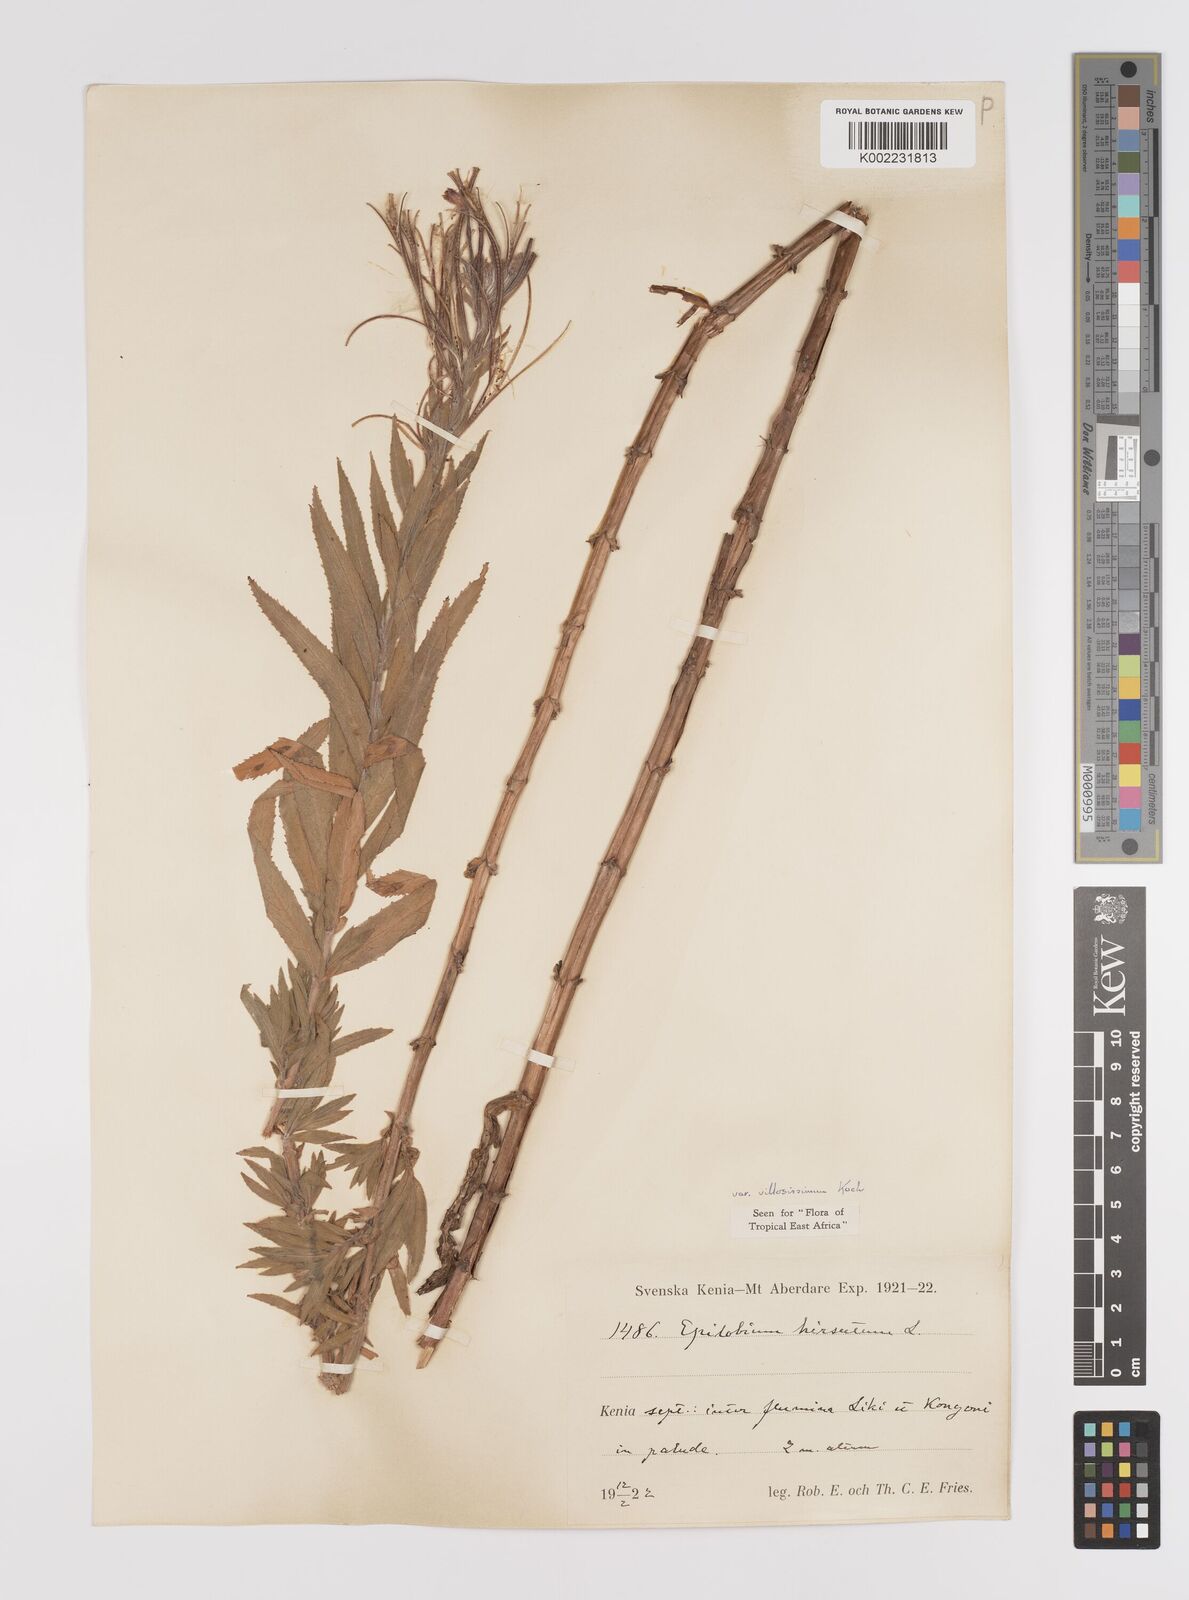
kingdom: Plantae
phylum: Tracheophyta
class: Magnoliopsida
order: Myrtales
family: Onagraceae
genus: Epilobium
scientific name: Epilobium hirsutum
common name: Great willowherb
